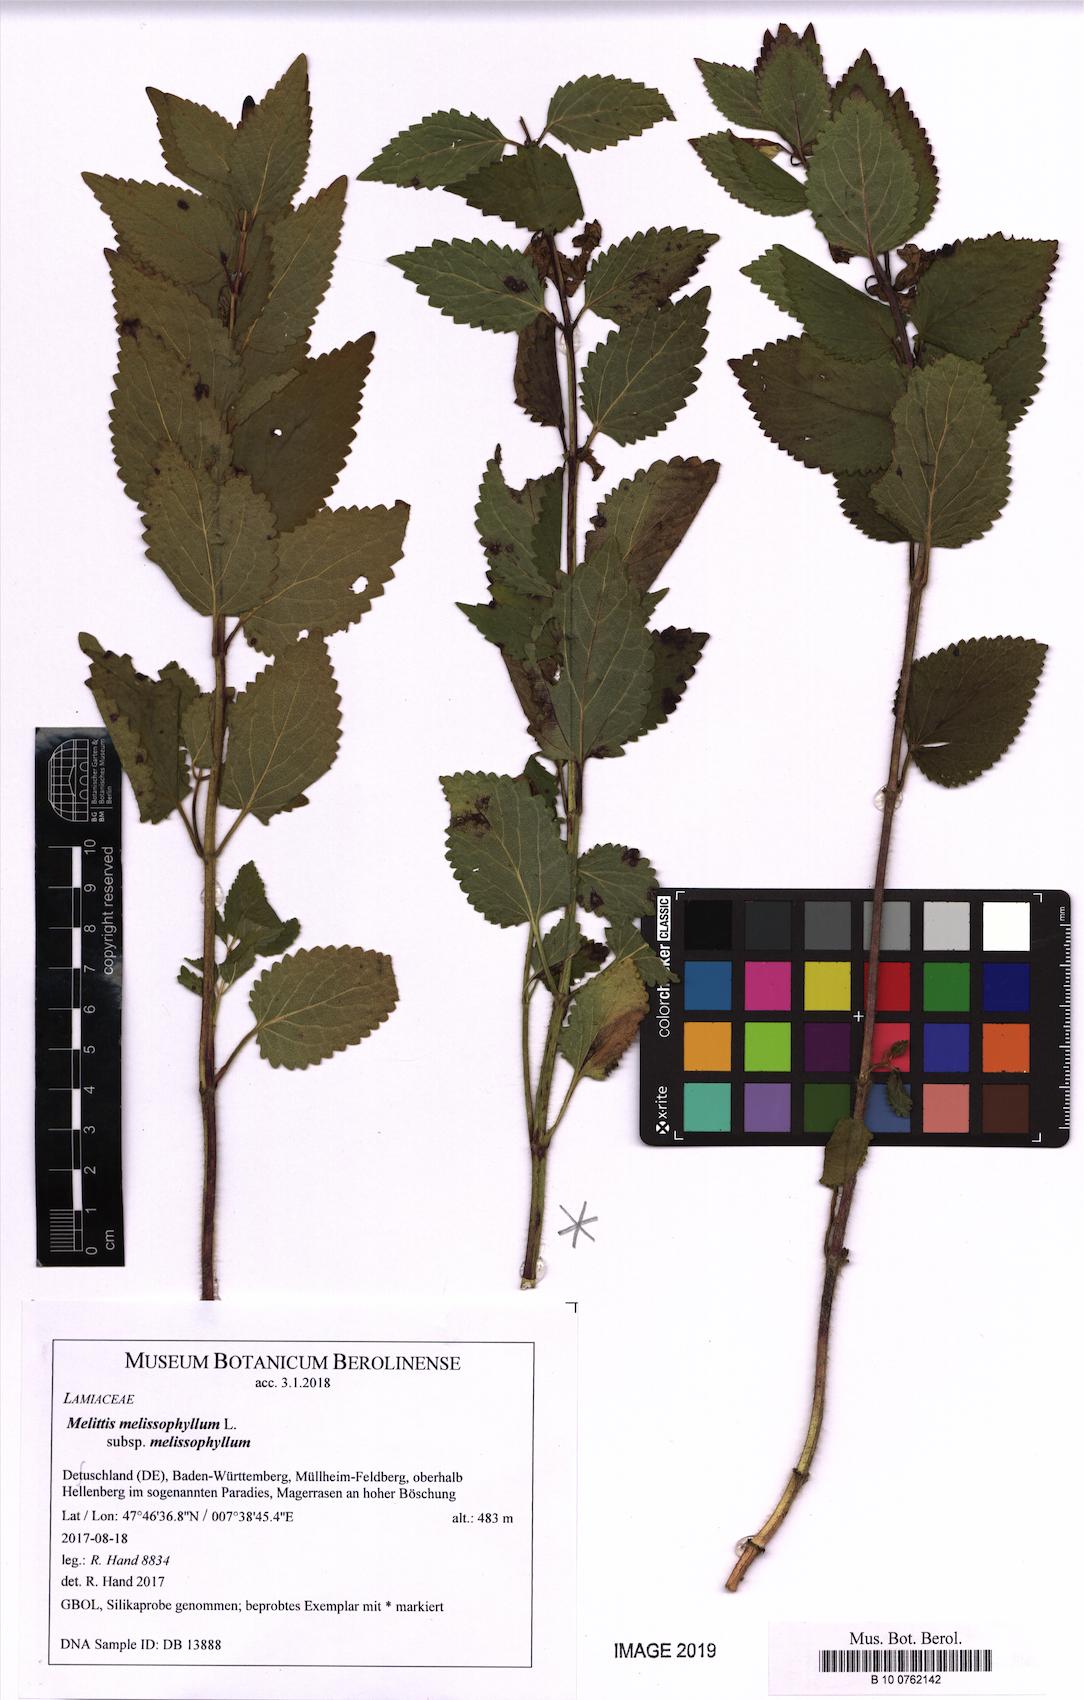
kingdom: Plantae
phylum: Tracheophyta
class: Magnoliopsida
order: Lamiales
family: Lamiaceae
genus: Melittis
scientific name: Melittis melissophyllum
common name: Bastard balm
